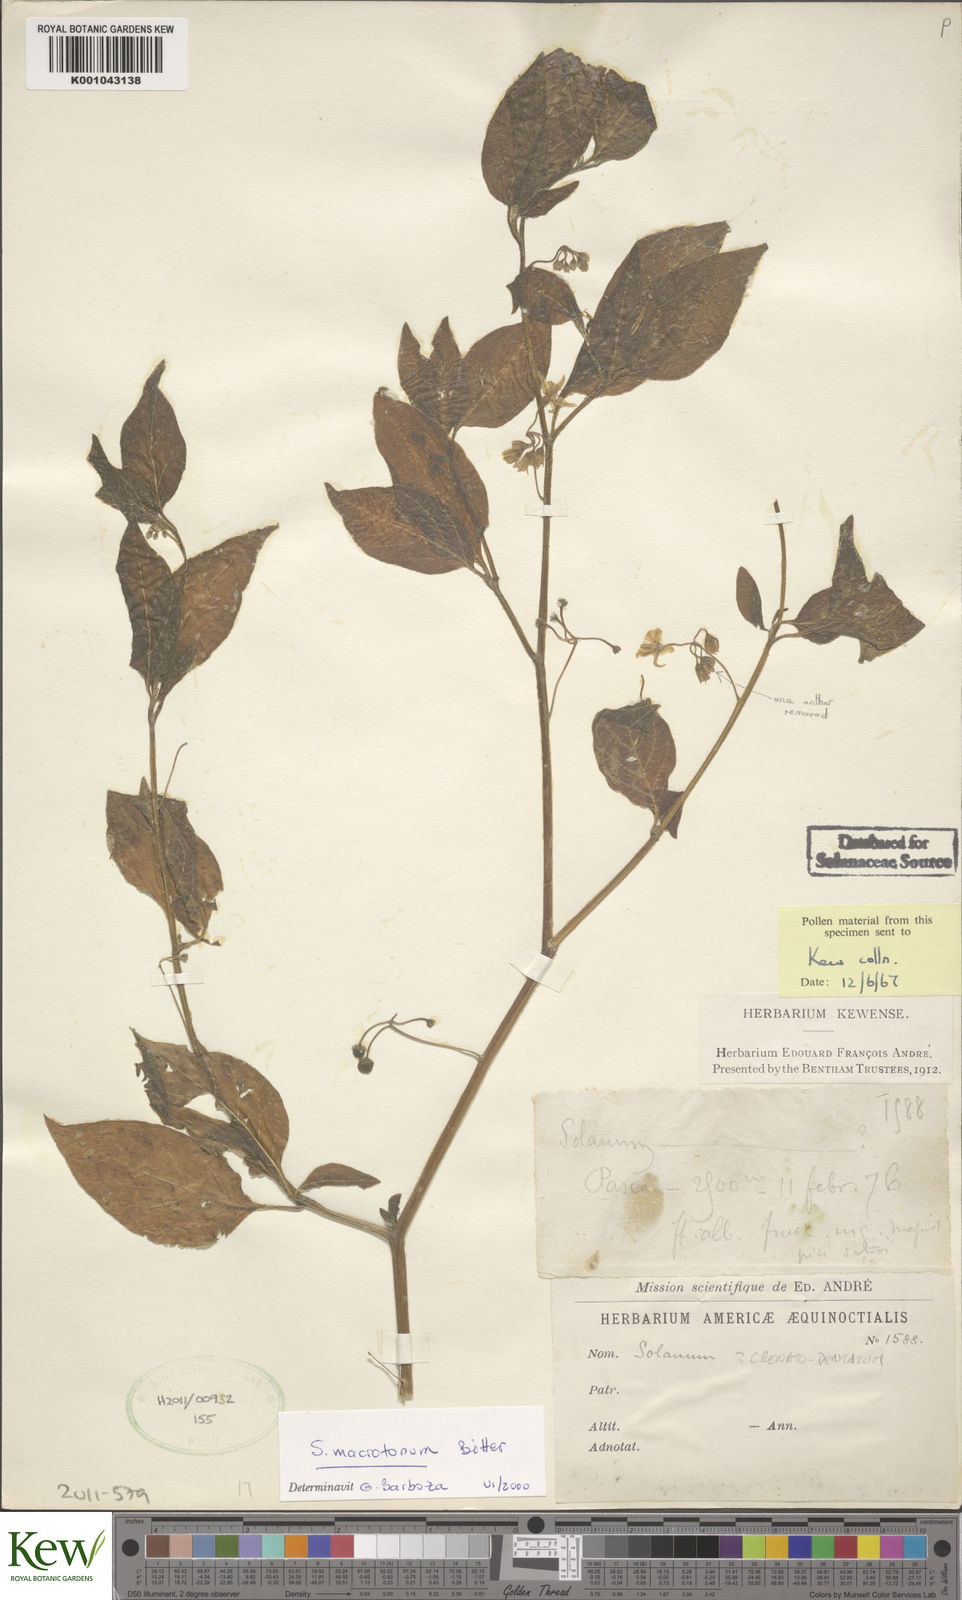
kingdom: Plantae
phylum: Tracheophyta
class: Magnoliopsida
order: Solanales
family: Solanaceae
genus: Solanum
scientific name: Solanum macrotonum
